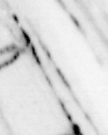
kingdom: Animalia
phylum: Chordata
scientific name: Chordata
